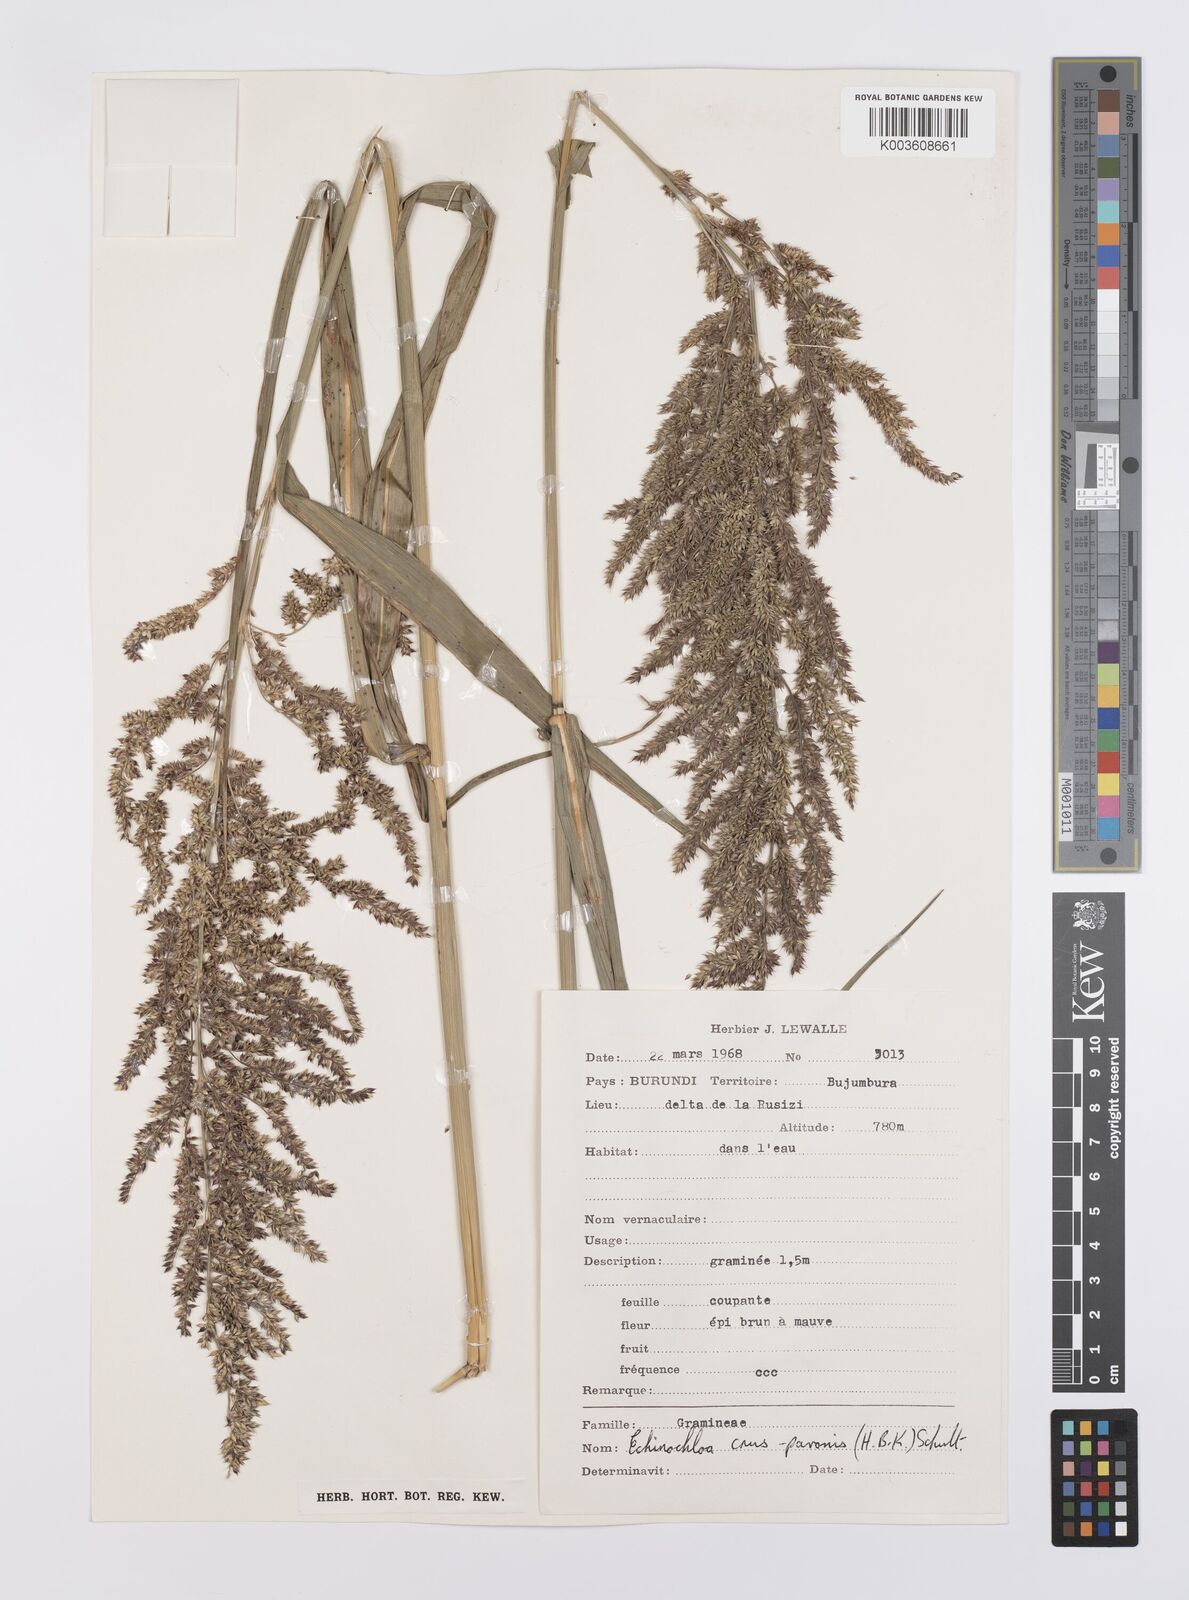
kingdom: Plantae
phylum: Tracheophyta
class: Liliopsida
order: Poales
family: Poaceae
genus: Echinochloa
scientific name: Echinochloa crus-pavonis
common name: Gulf cockspur grass
